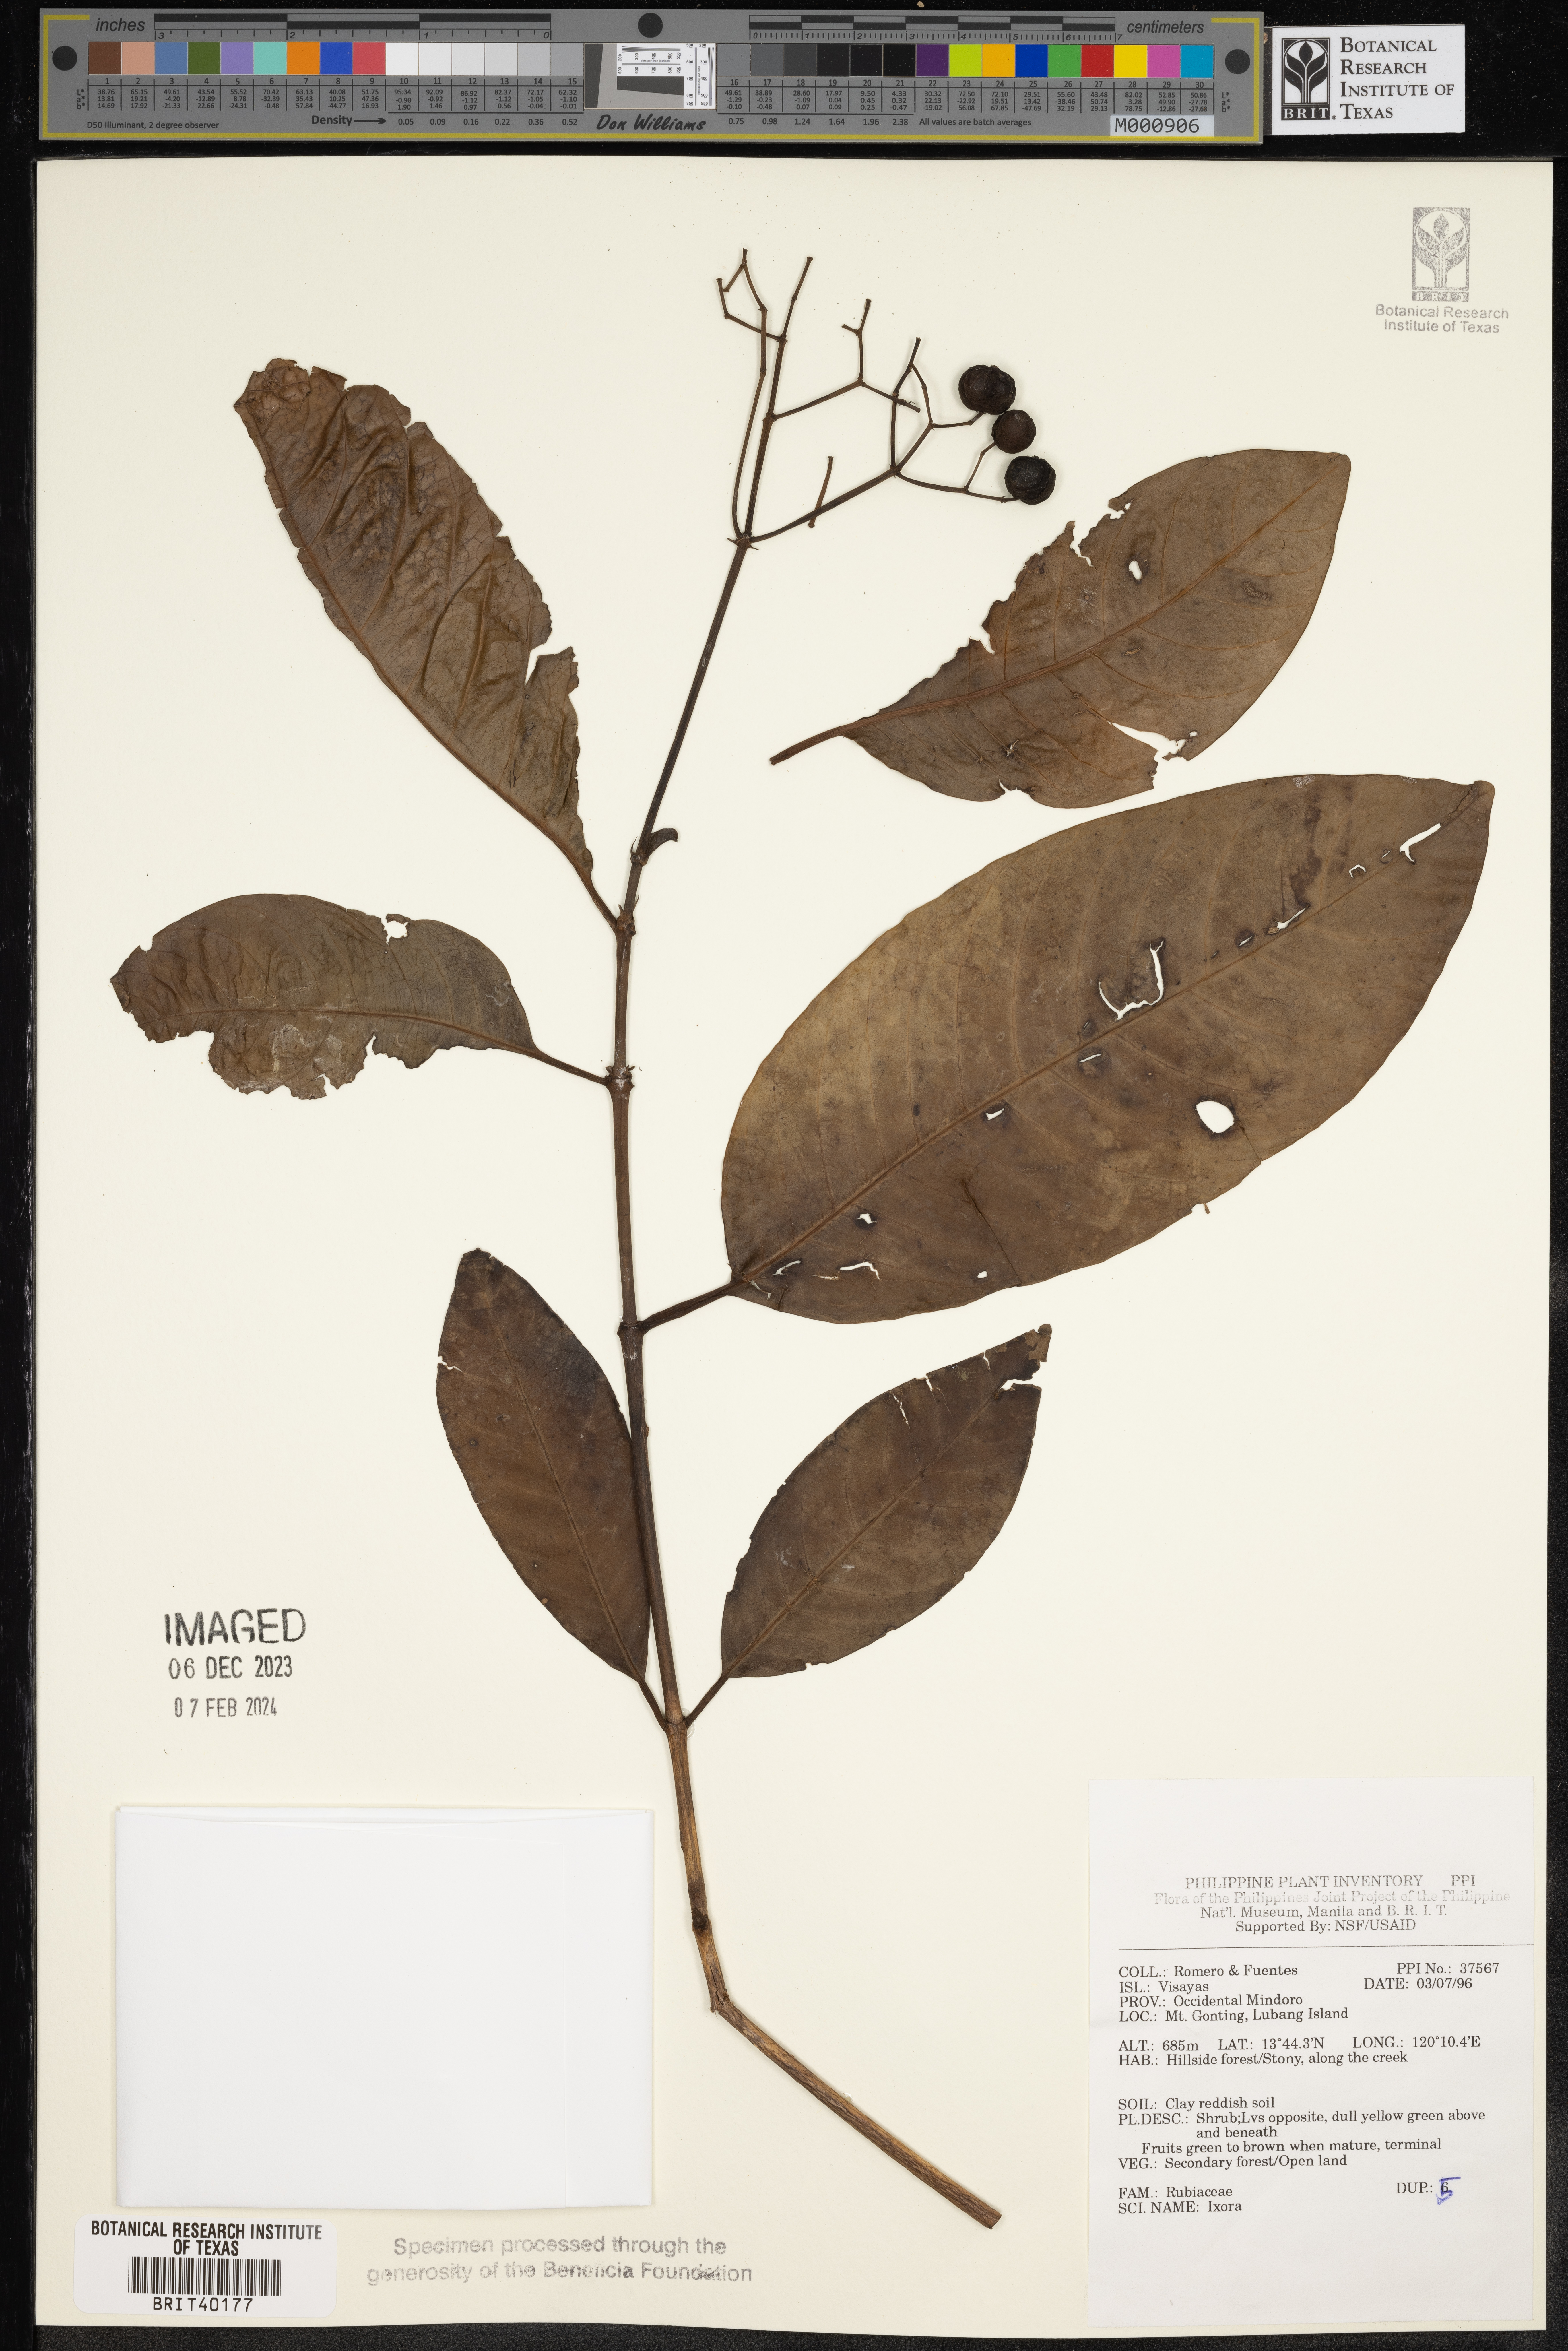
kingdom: Plantae
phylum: Tracheophyta
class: Magnoliopsida
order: Gentianales
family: Rubiaceae
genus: Ixora
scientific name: Ixora
